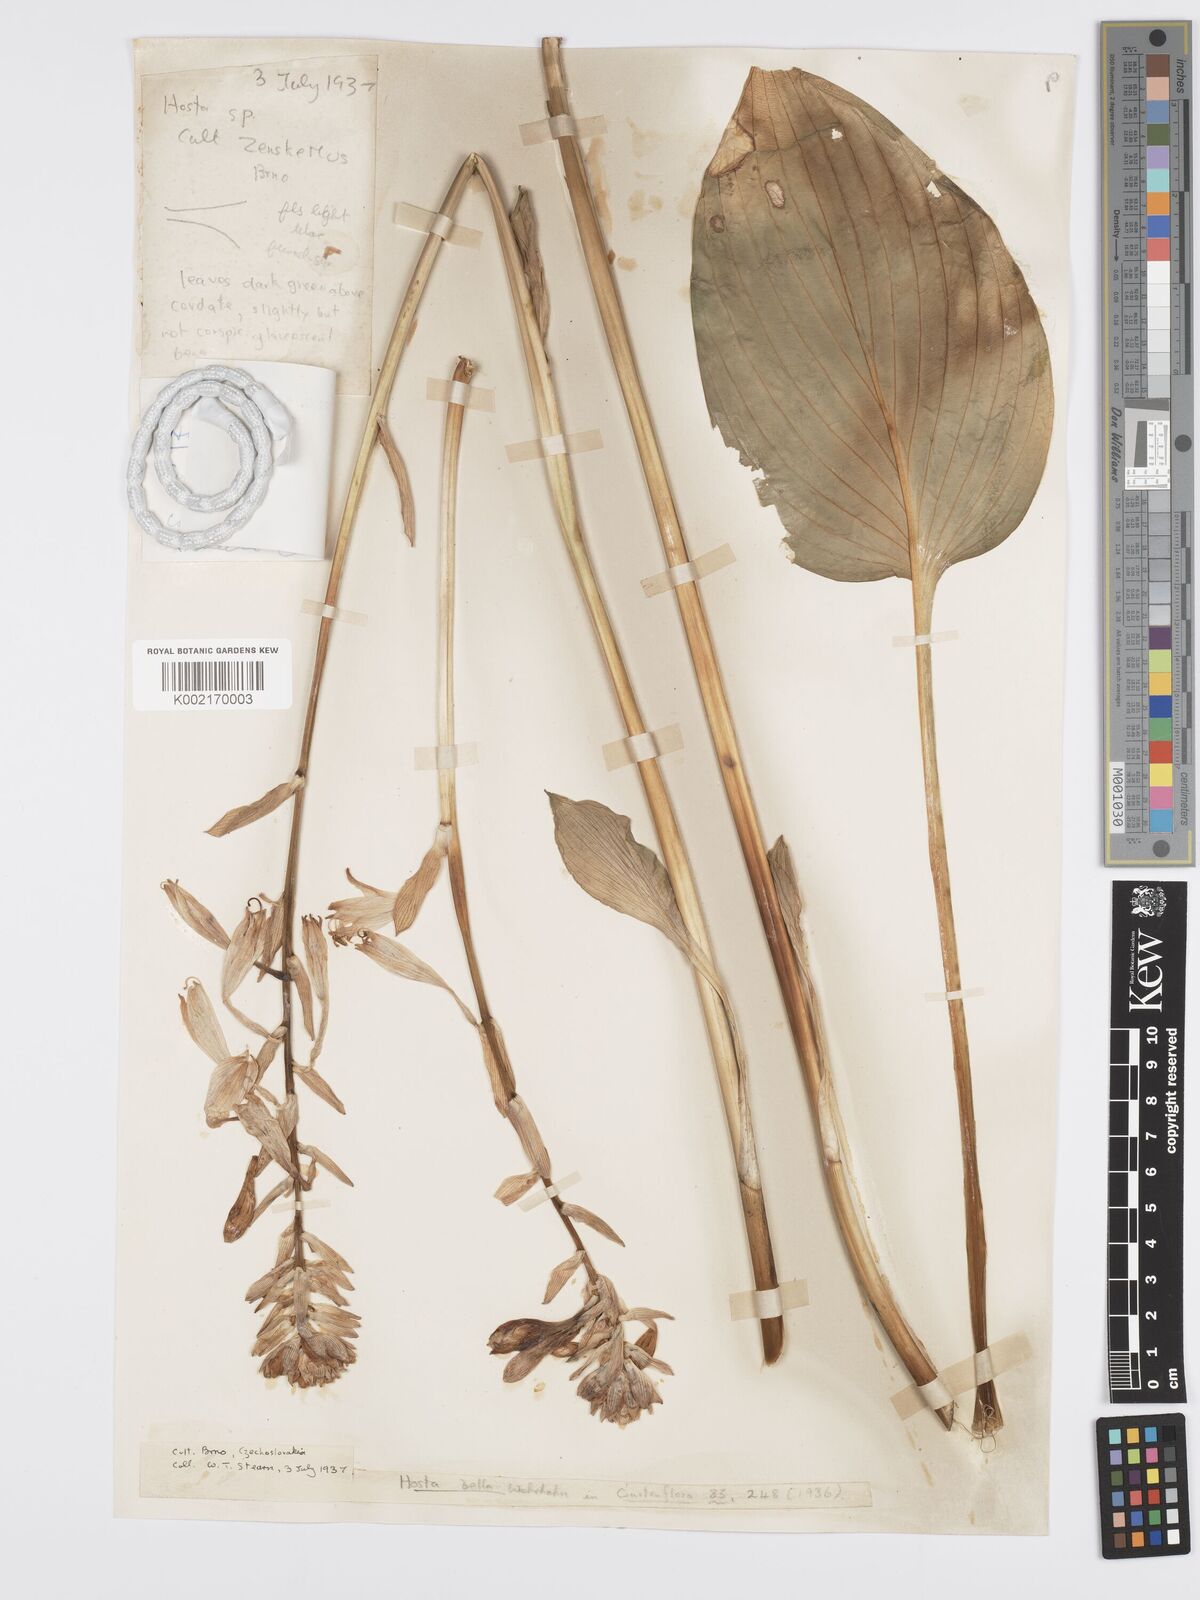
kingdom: Plantae
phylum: Tracheophyta
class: Liliopsida
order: Asparagales
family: Asparagaceae
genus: Hosta
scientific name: Hosta sieboldiana
